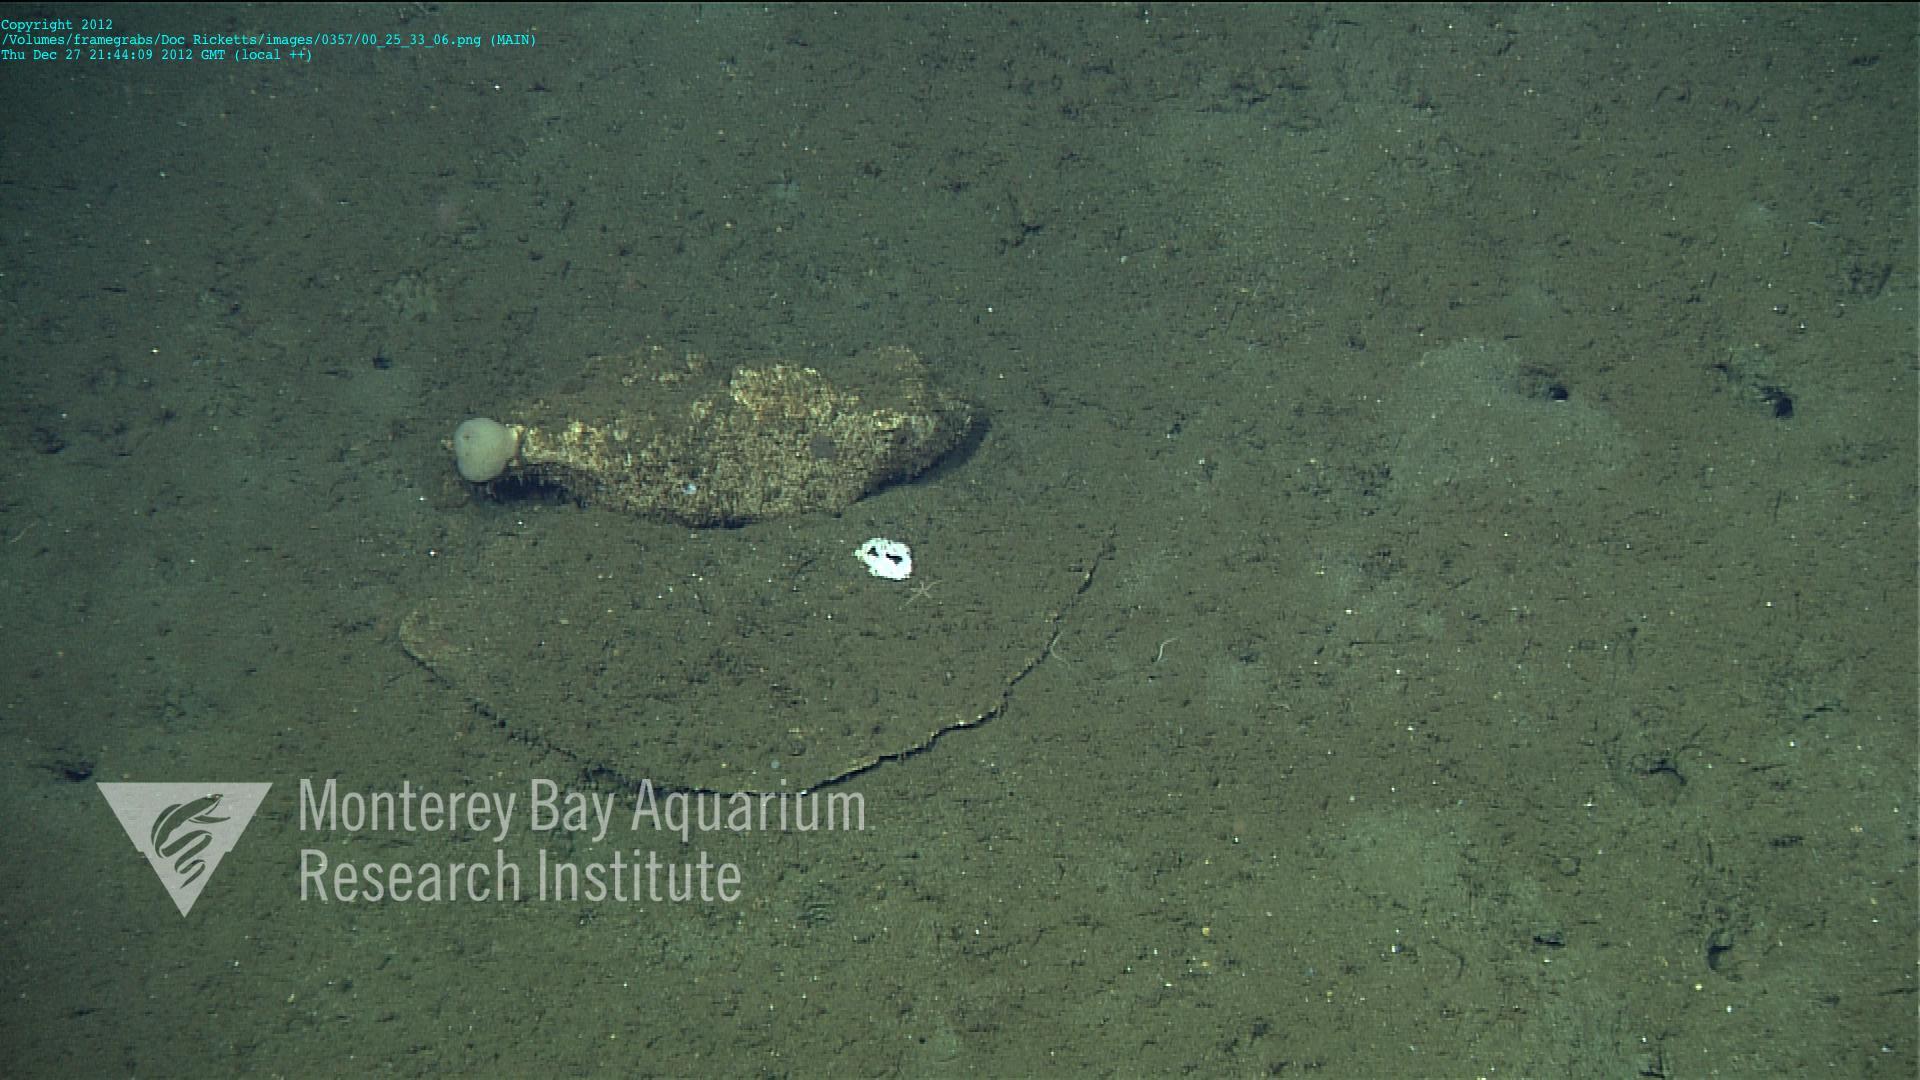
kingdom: Animalia
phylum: Porifera
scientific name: Porifera
